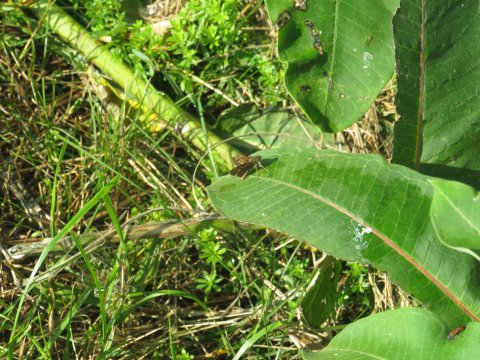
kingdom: Animalia
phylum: Arthropoda
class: Insecta
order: Lepidoptera
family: Hesperiidae
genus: Vernia
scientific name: Vernia verna
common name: Little Glassywing
